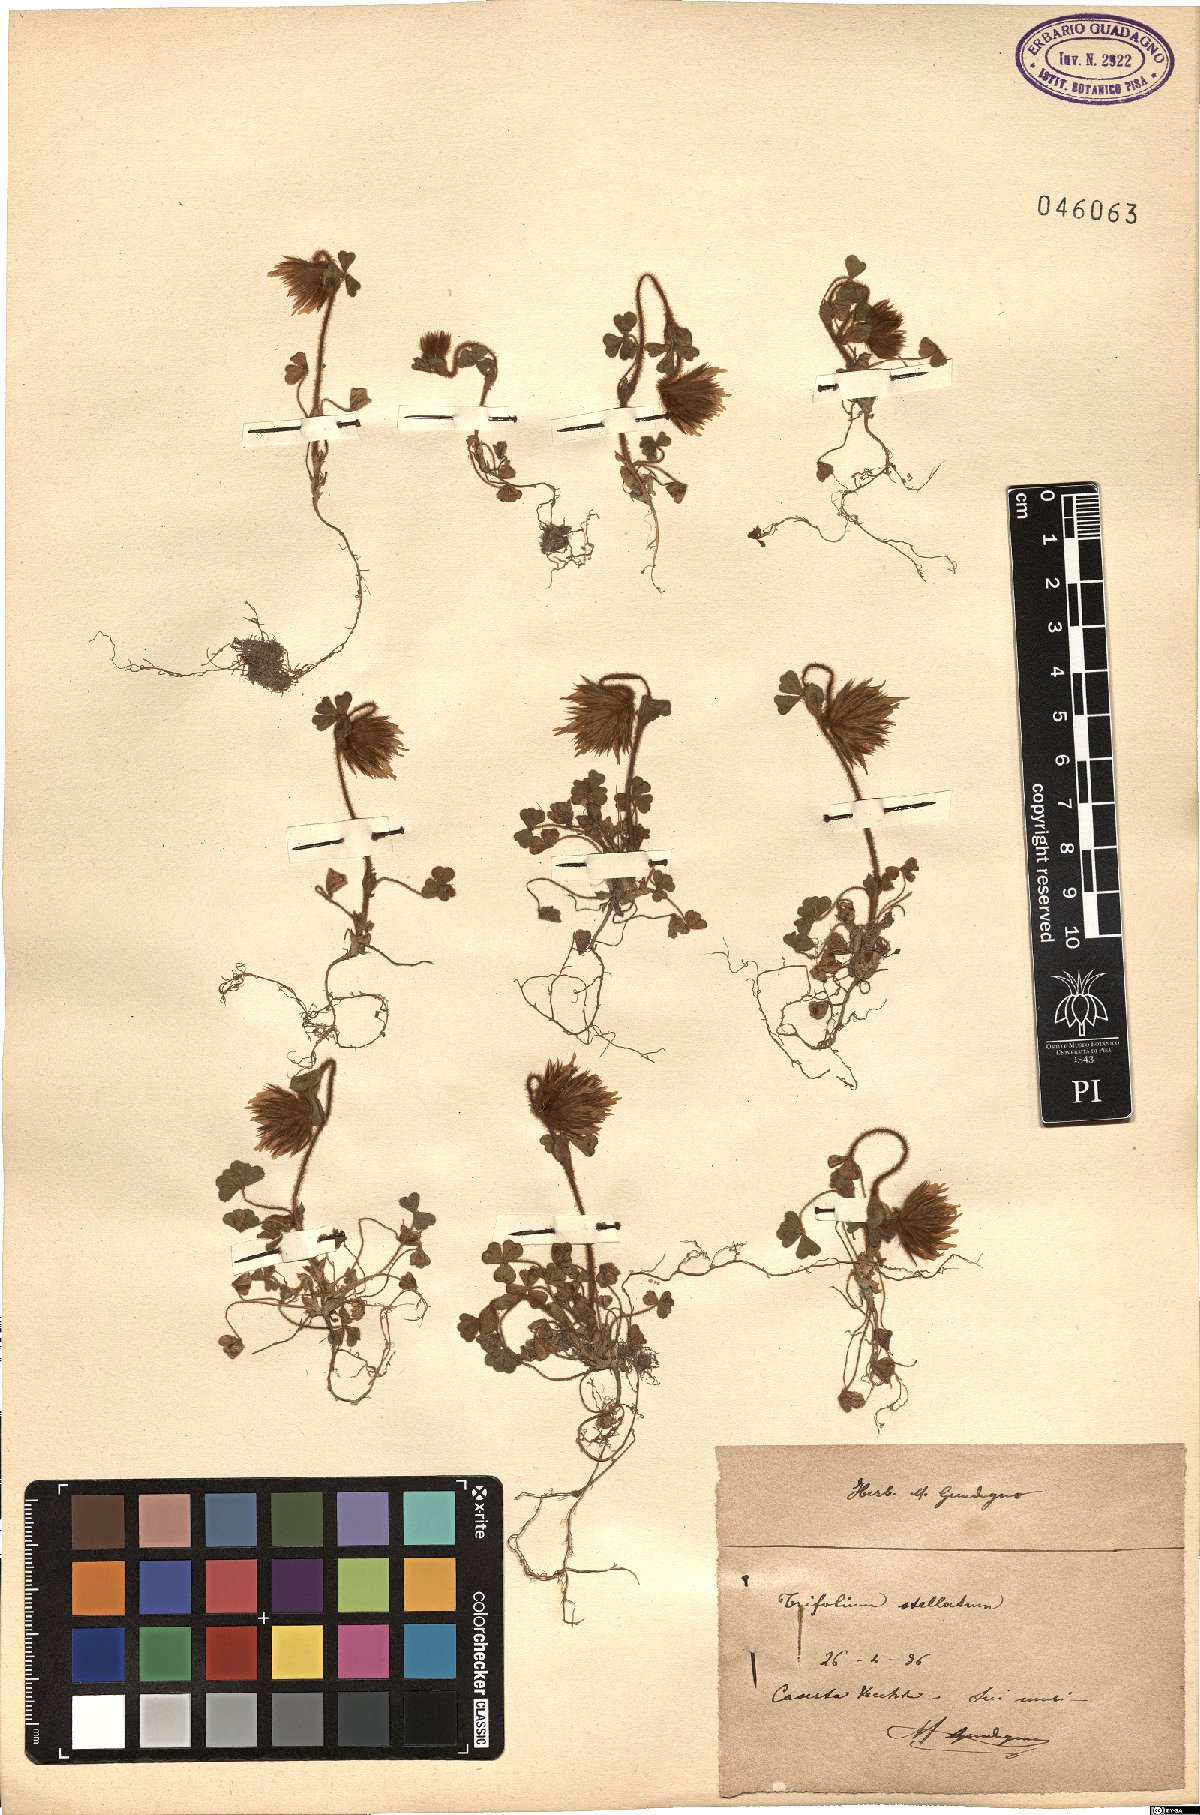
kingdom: Plantae
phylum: Tracheophyta
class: Magnoliopsida
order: Fabales
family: Fabaceae
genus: Trifolium
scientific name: Trifolium stellatum
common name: Starry clover
